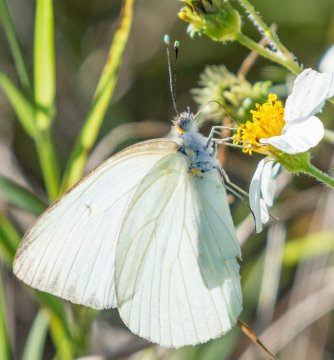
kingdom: Animalia
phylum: Arthropoda
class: Insecta
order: Lepidoptera
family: Pieridae
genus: Ascia
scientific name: Ascia monuste
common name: Great Southern White
